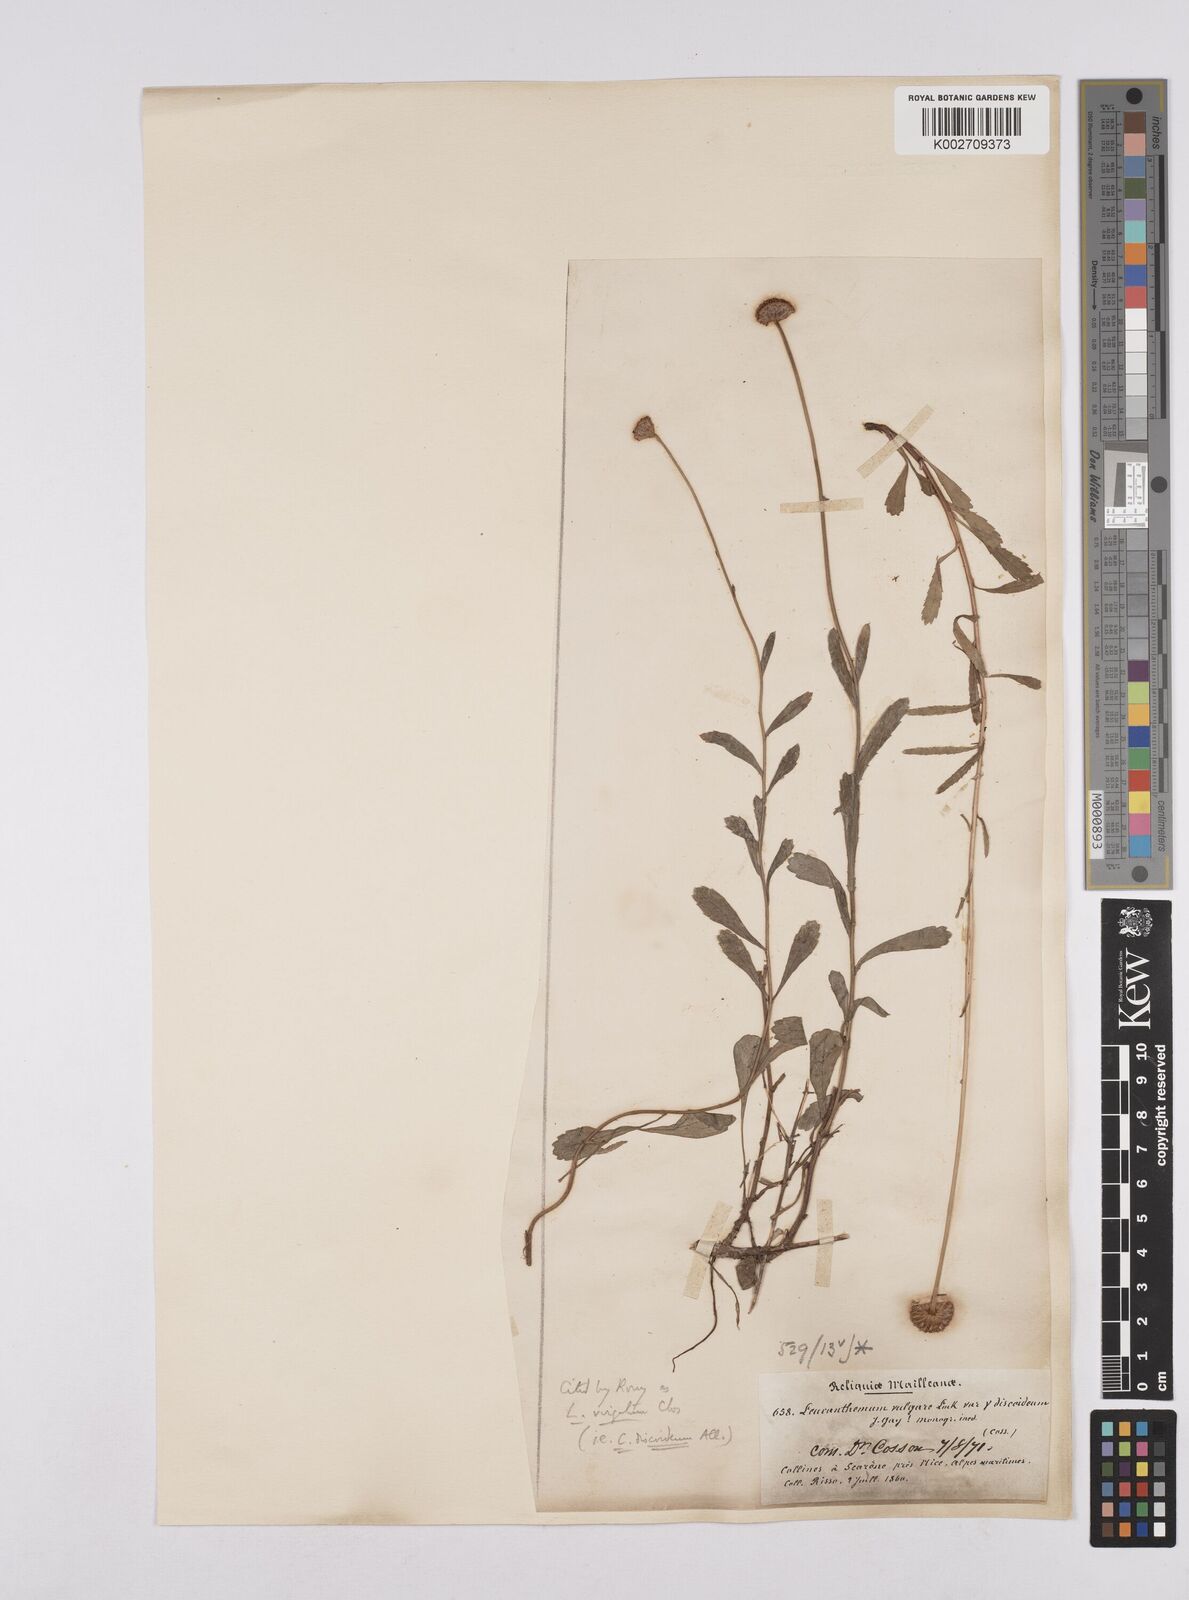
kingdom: Plantae
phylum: Tracheophyta
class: Magnoliopsida
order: Asterales
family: Asteraceae
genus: Leucanthemum
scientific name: Leucanthemum vulgare
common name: Oxeye daisy
